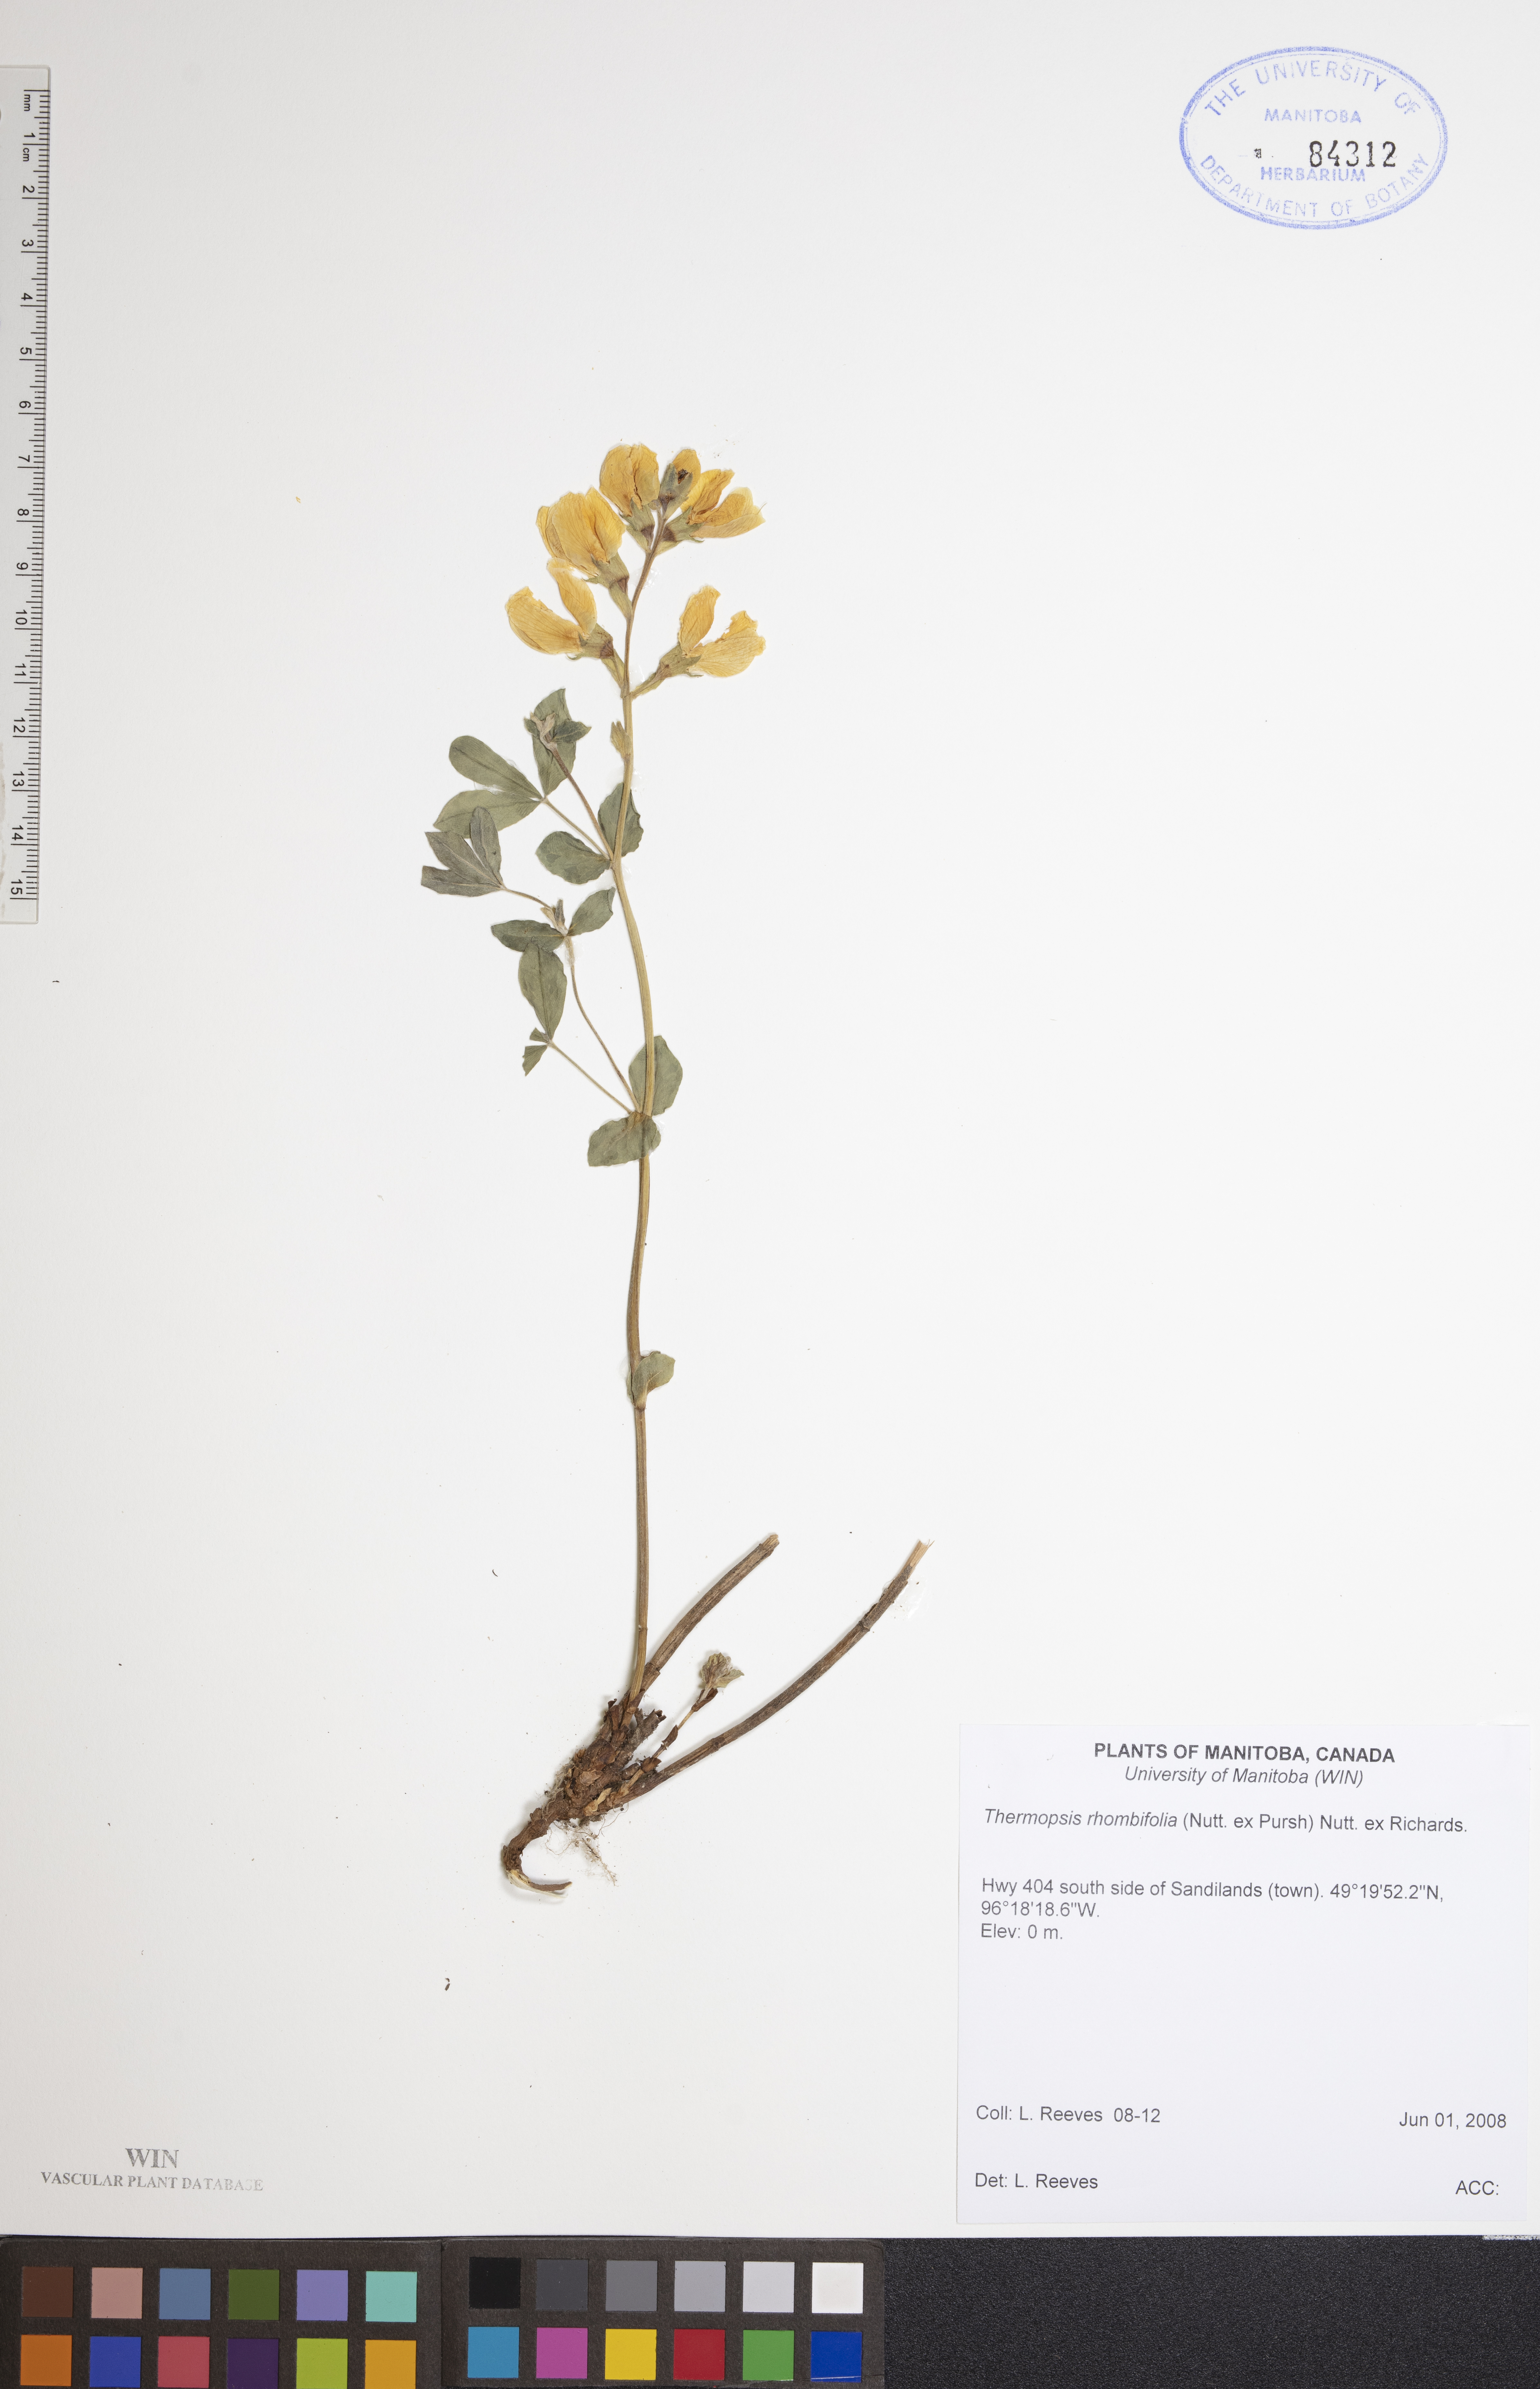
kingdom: Plantae
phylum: Tracheophyta
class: Magnoliopsida
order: Fabales
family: Fabaceae
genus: Thermopsis
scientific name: Thermopsis rhombifolia
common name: Circle-pod-pea
